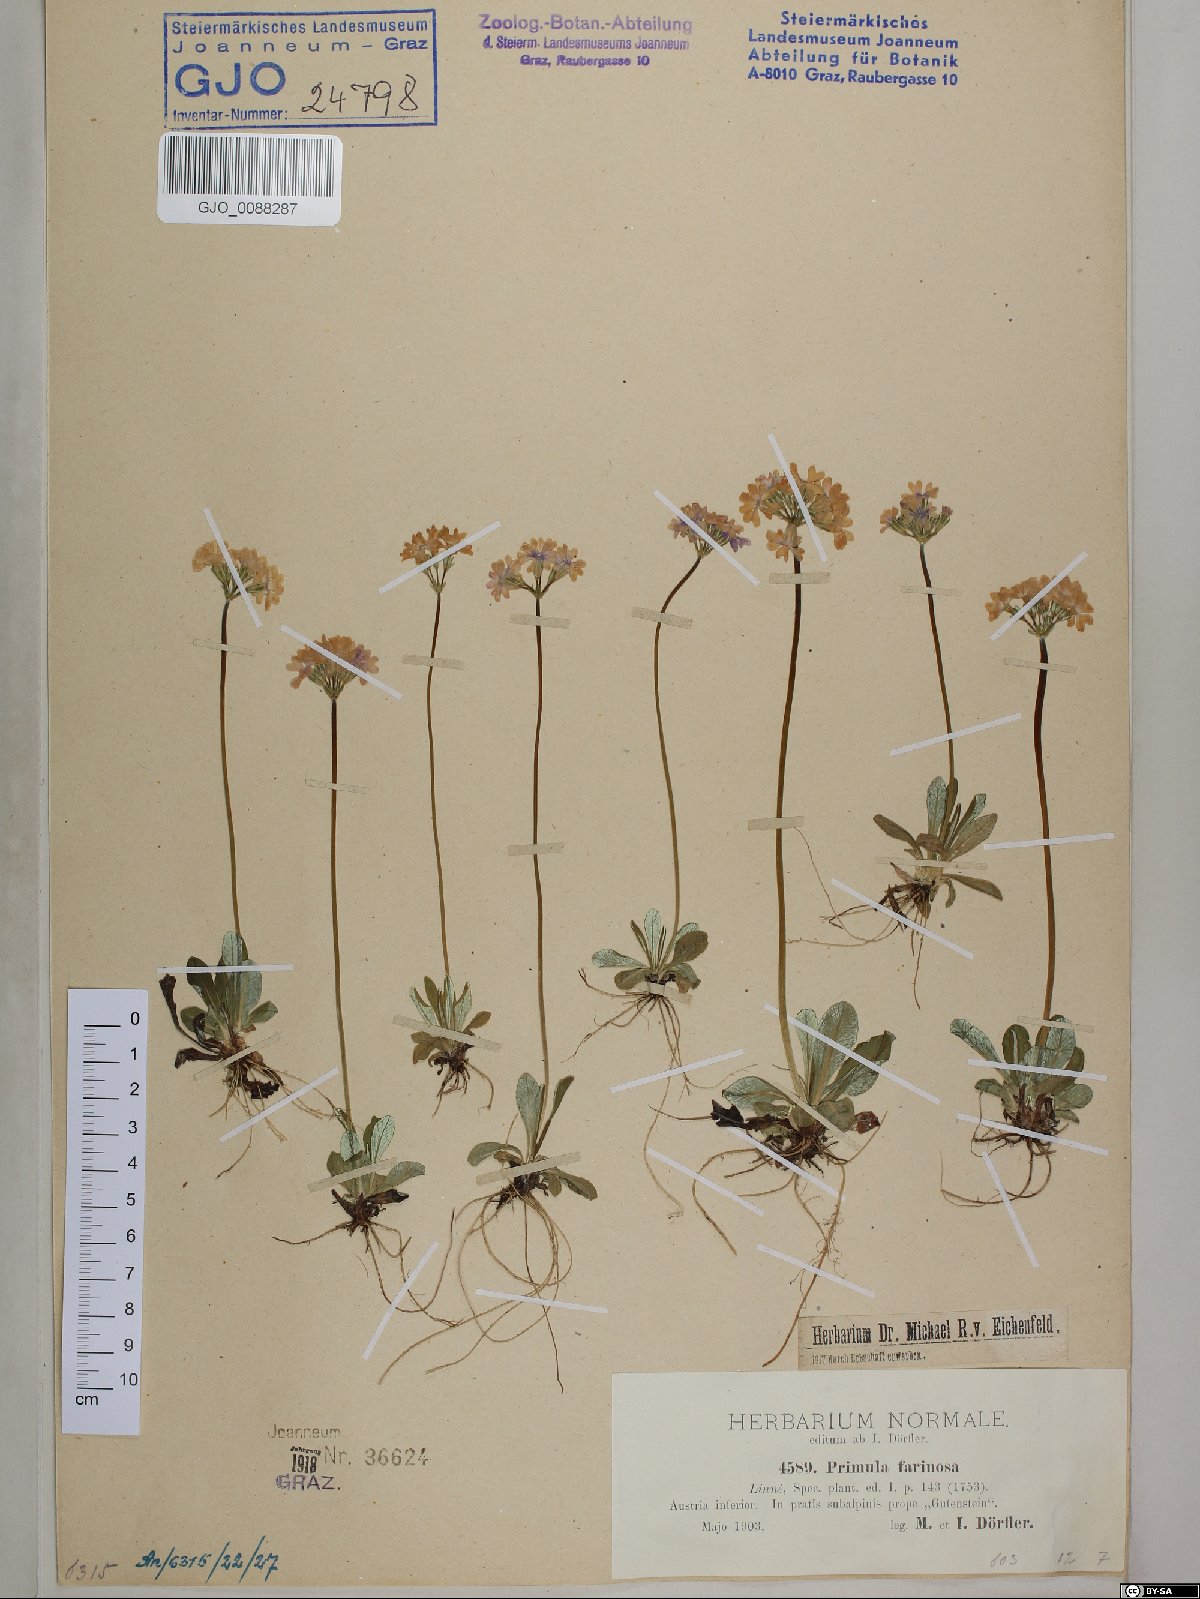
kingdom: Plantae
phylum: Tracheophyta
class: Magnoliopsida
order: Ericales
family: Primulaceae
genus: Primula
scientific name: Primula farinosa
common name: Bird's-eye primrose
